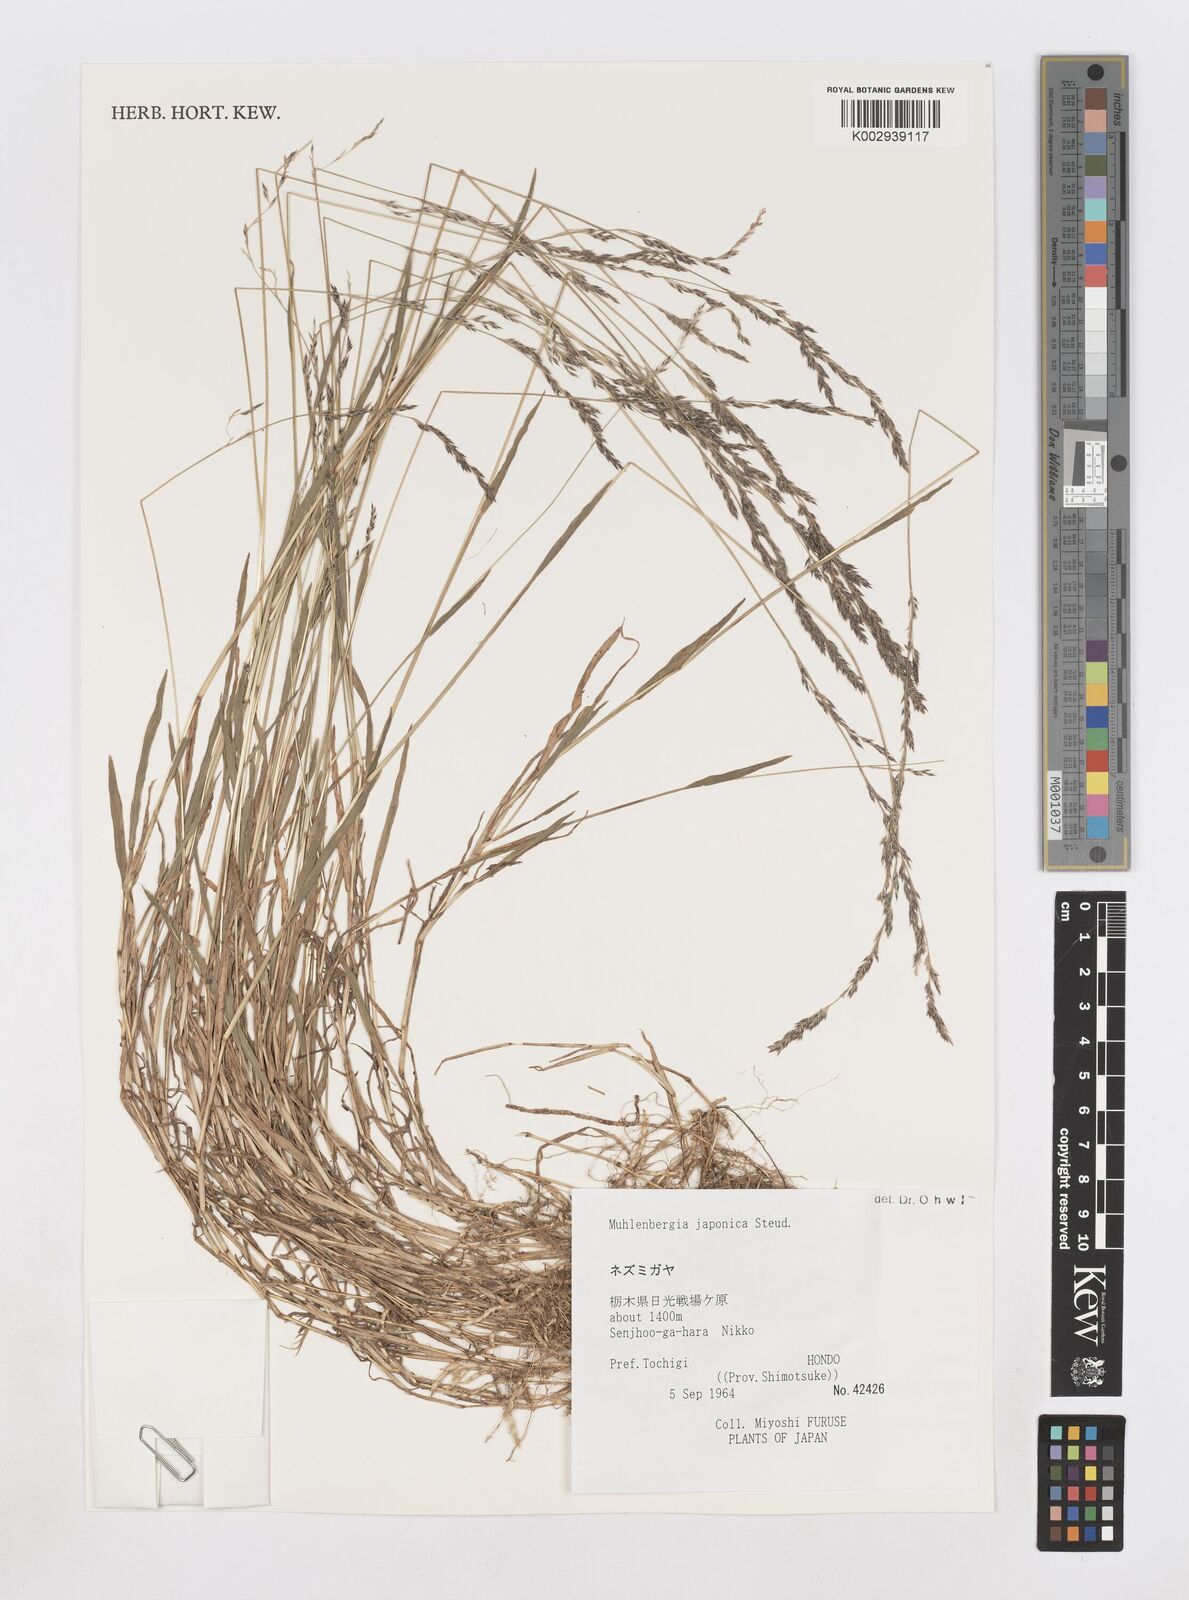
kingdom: Plantae
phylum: Tracheophyta
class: Liliopsida
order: Poales
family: Poaceae
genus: Muhlenbergia
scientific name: Muhlenbergia japonica
